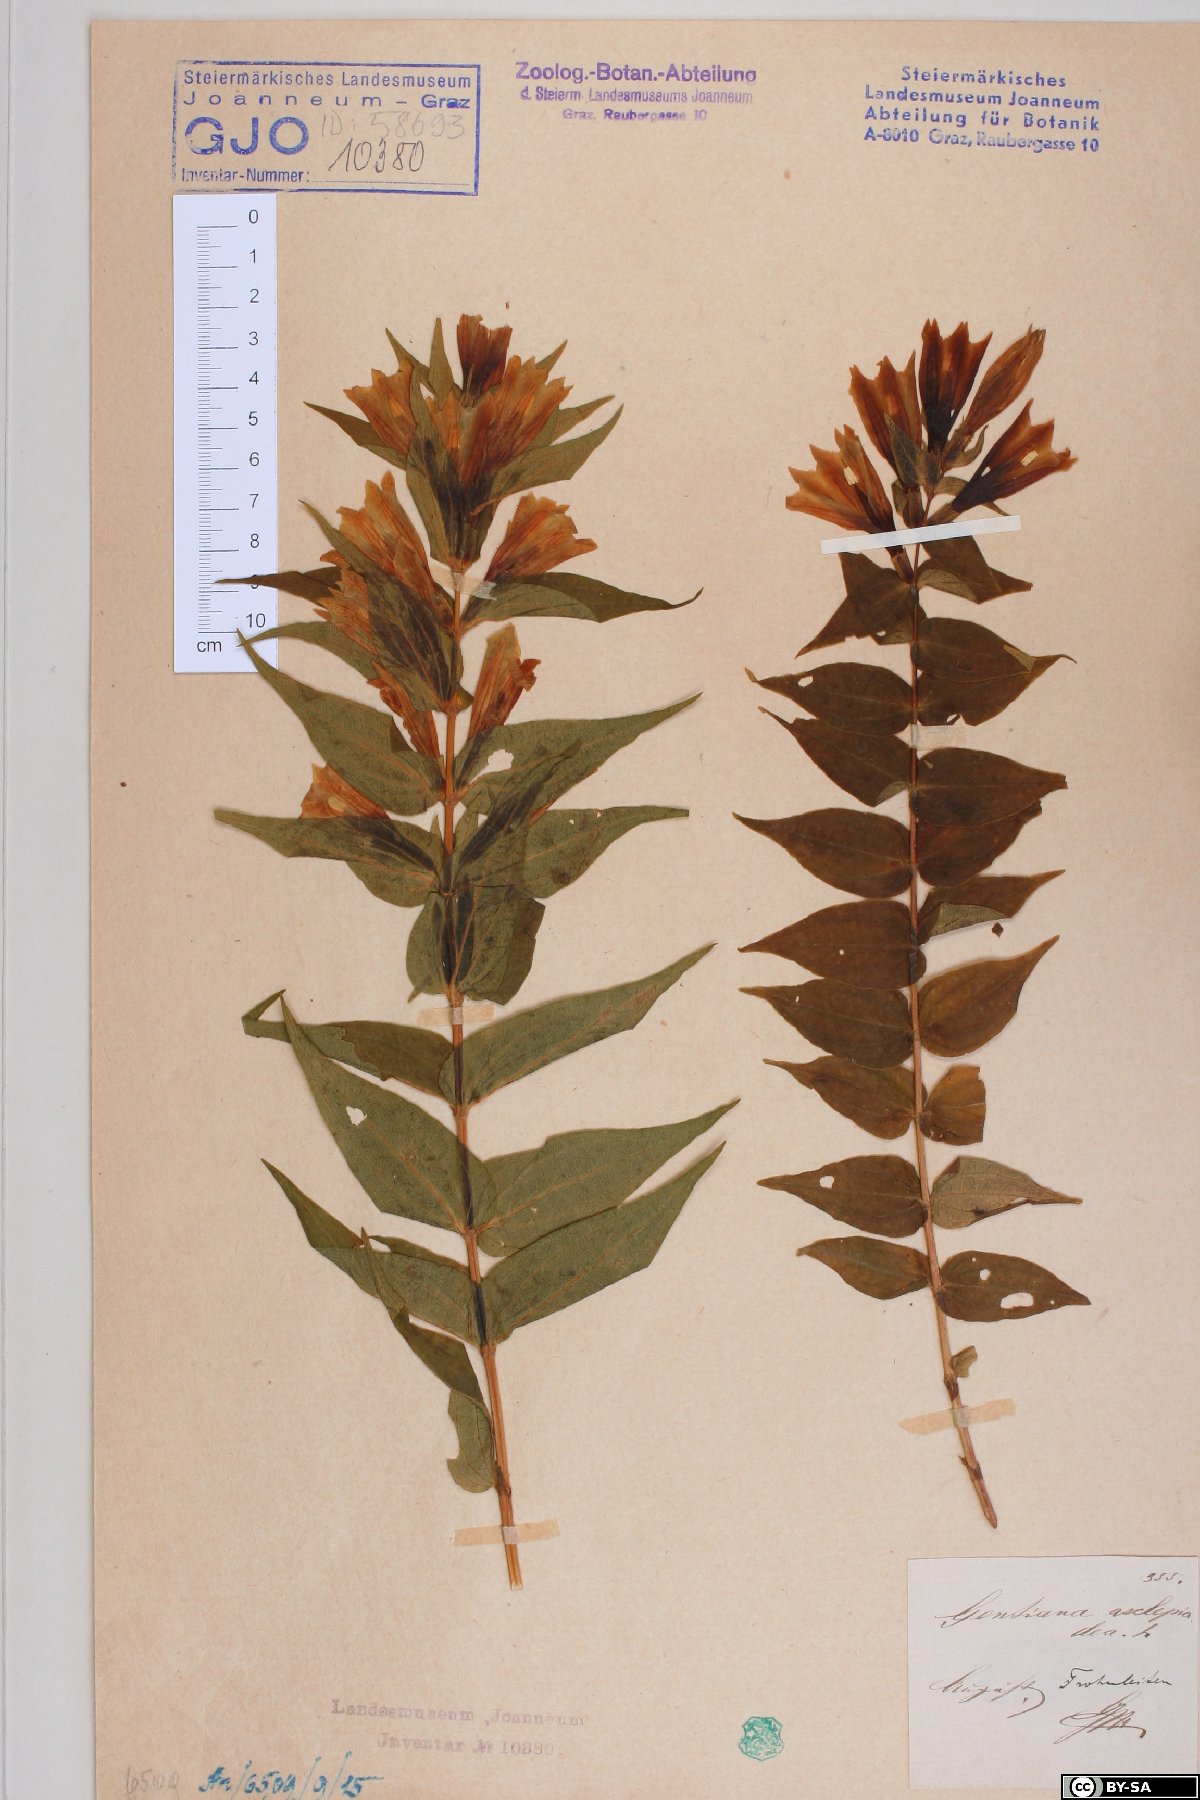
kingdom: Plantae
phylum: Tracheophyta
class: Magnoliopsida
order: Gentianales
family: Gentianaceae
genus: Gentiana
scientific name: Gentiana asclepiadea
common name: Willow gentian
